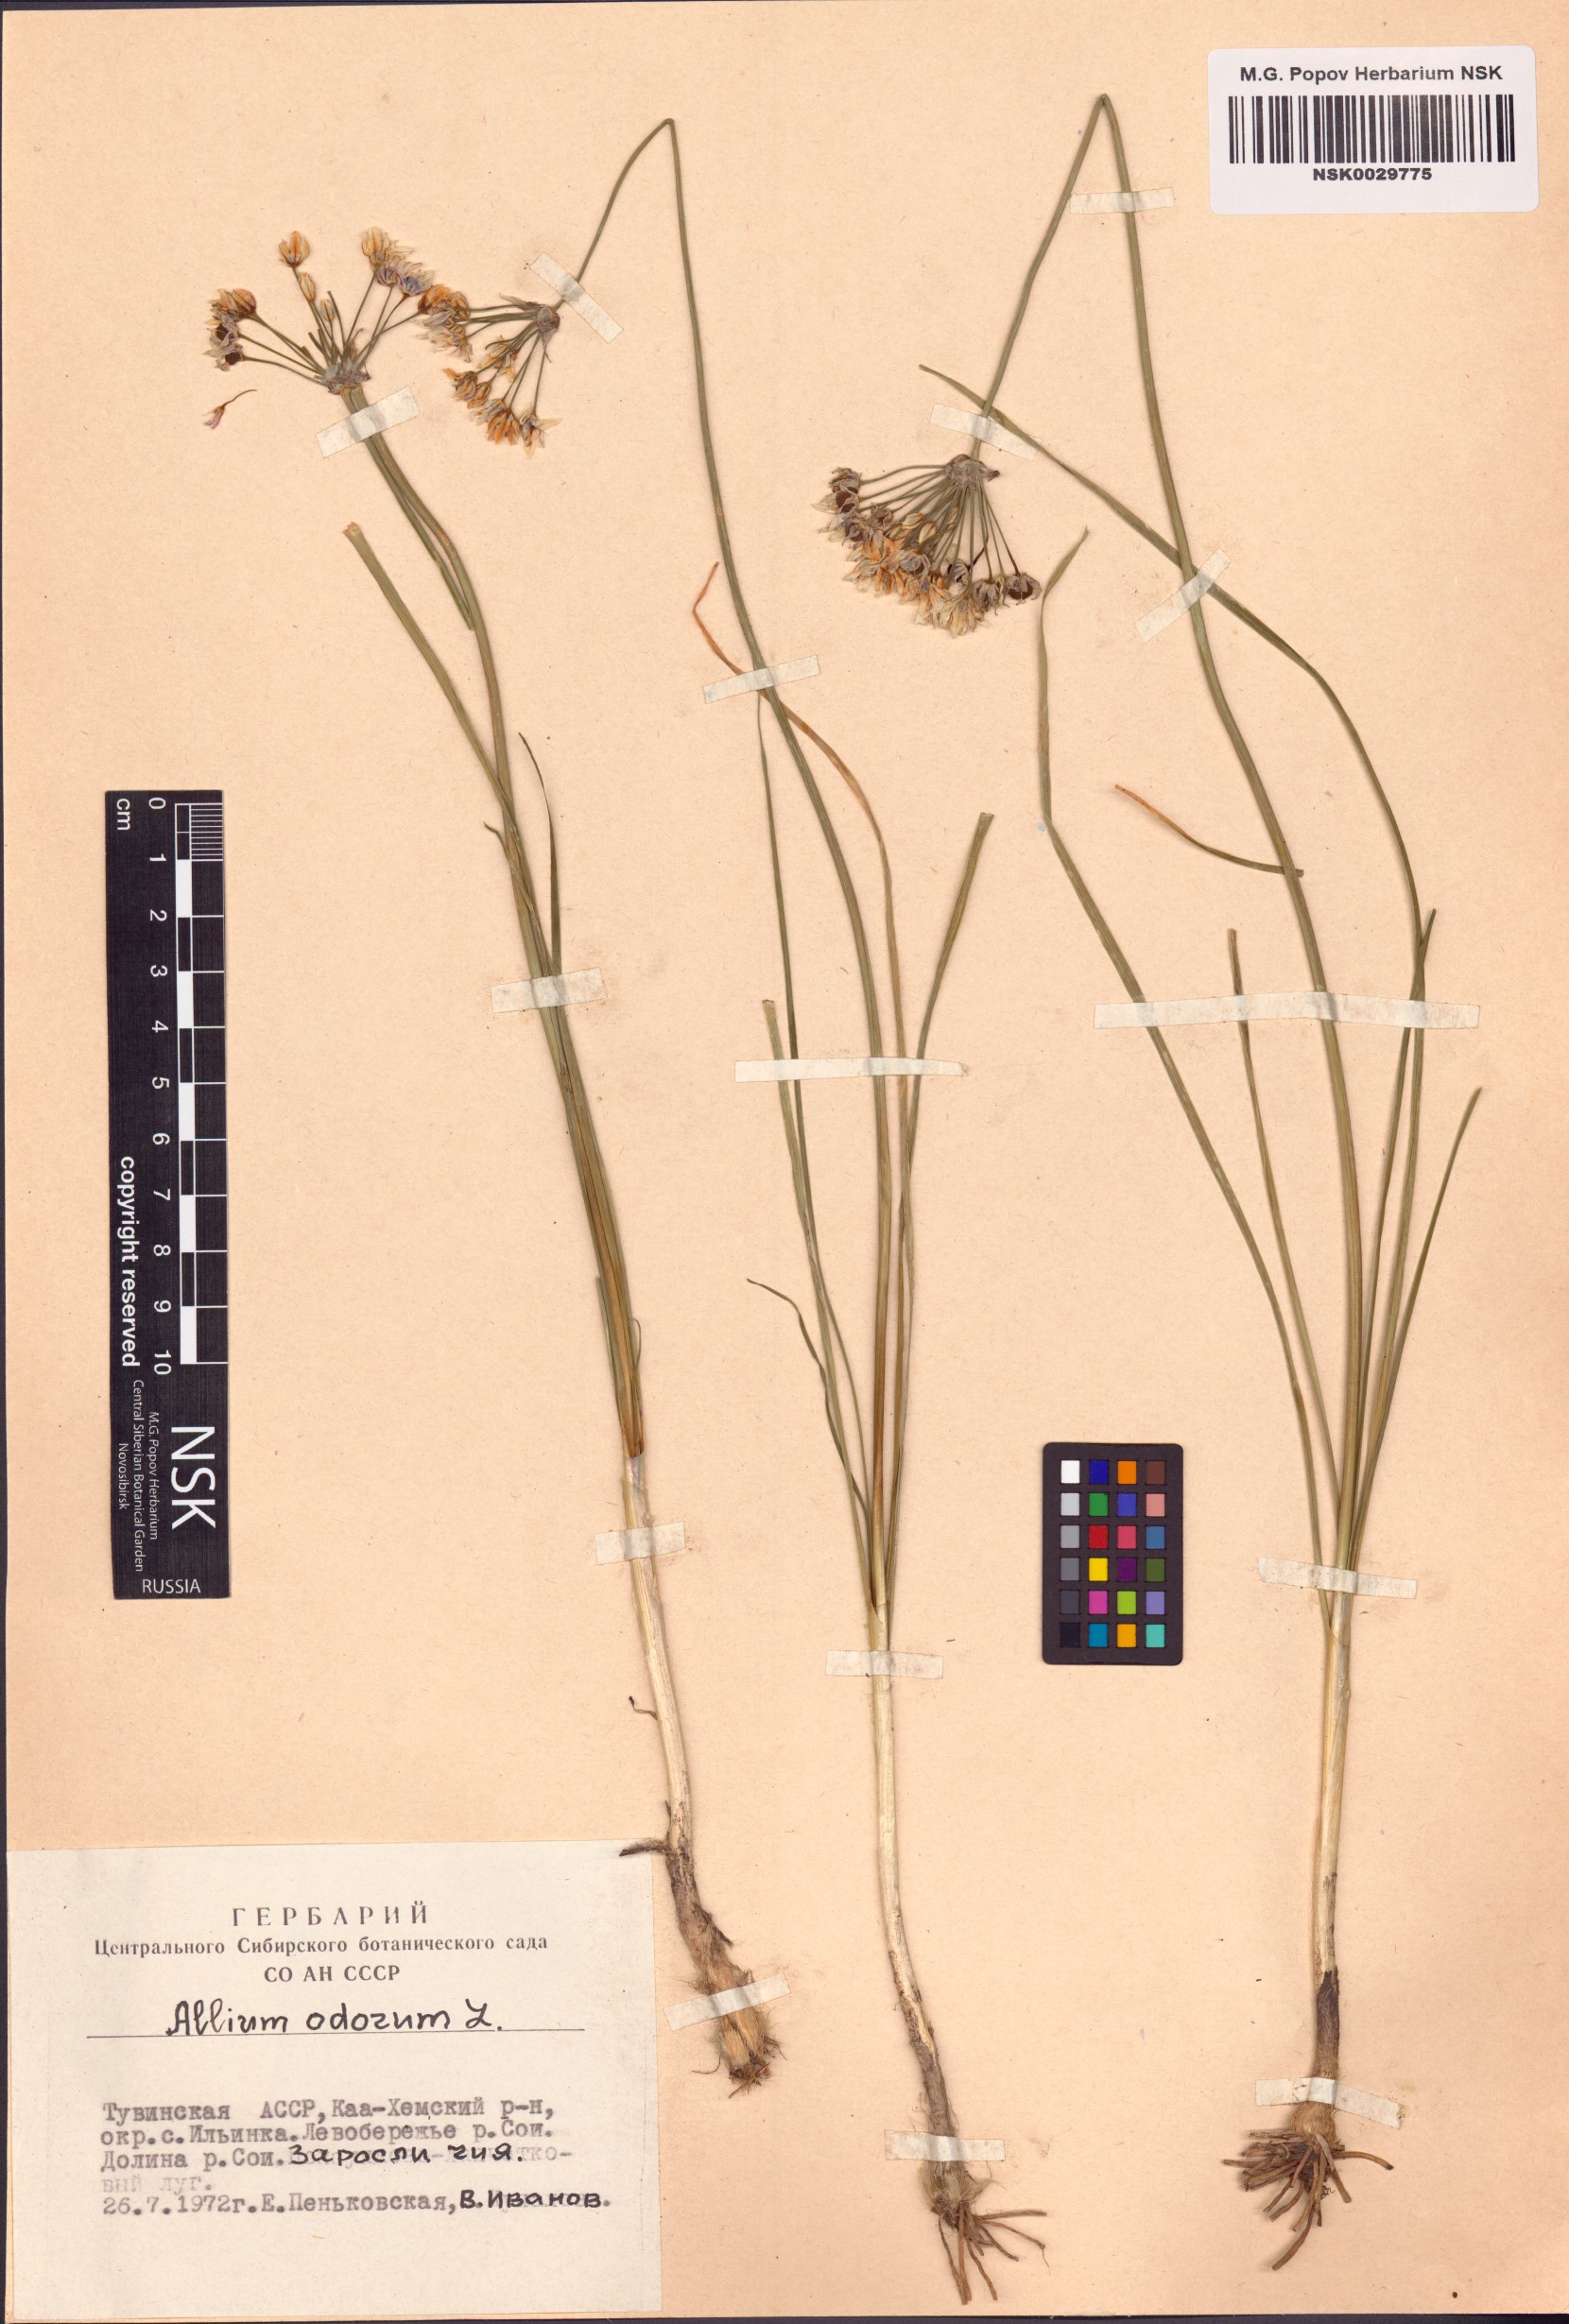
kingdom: Plantae
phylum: Tracheophyta
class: Liliopsida
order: Asparagales
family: Amaryllidaceae
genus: Allium
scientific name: Allium ramosum
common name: Fragrant garlic
